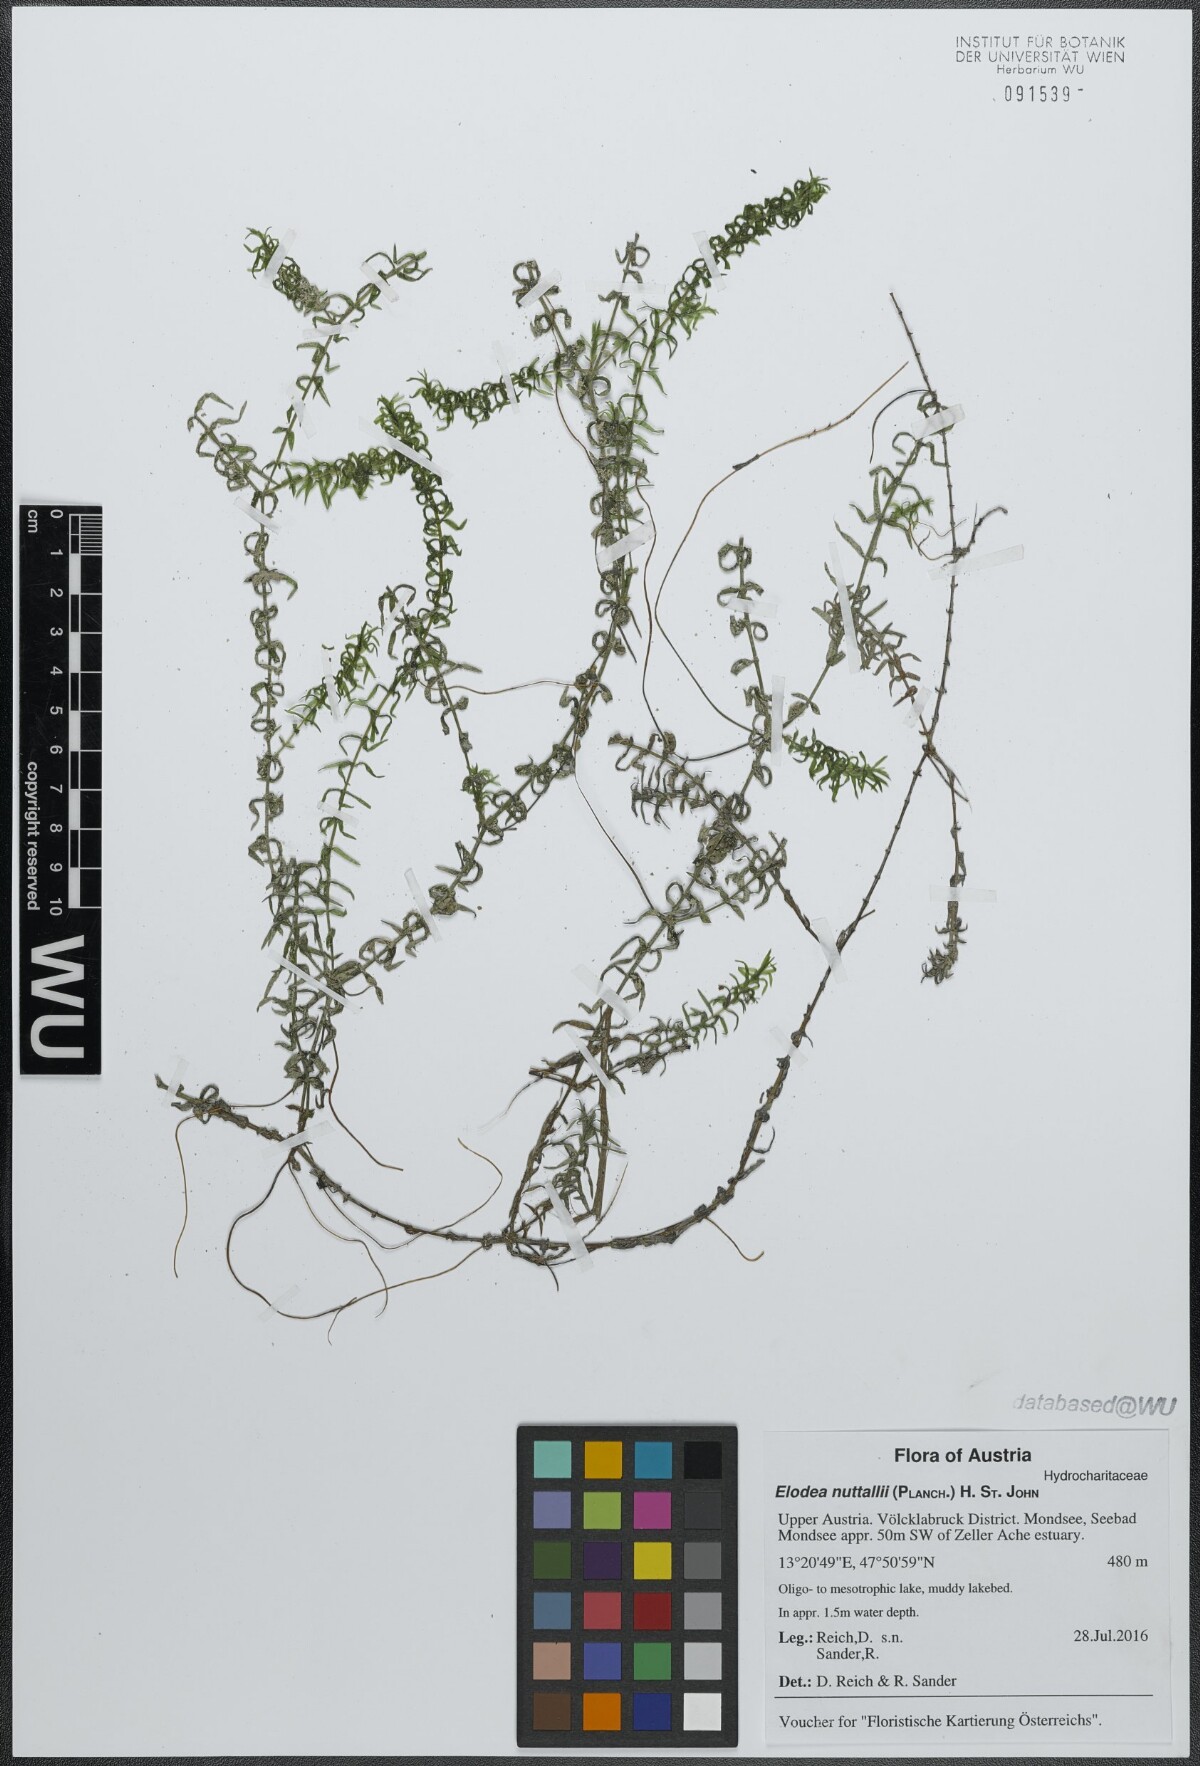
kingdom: Plantae
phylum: Tracheophyta
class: Liliopsida
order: Alismatales
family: Hydrocharitaceae
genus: Elodea
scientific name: Elodea nuttallii
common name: Nuttall's waterweed
